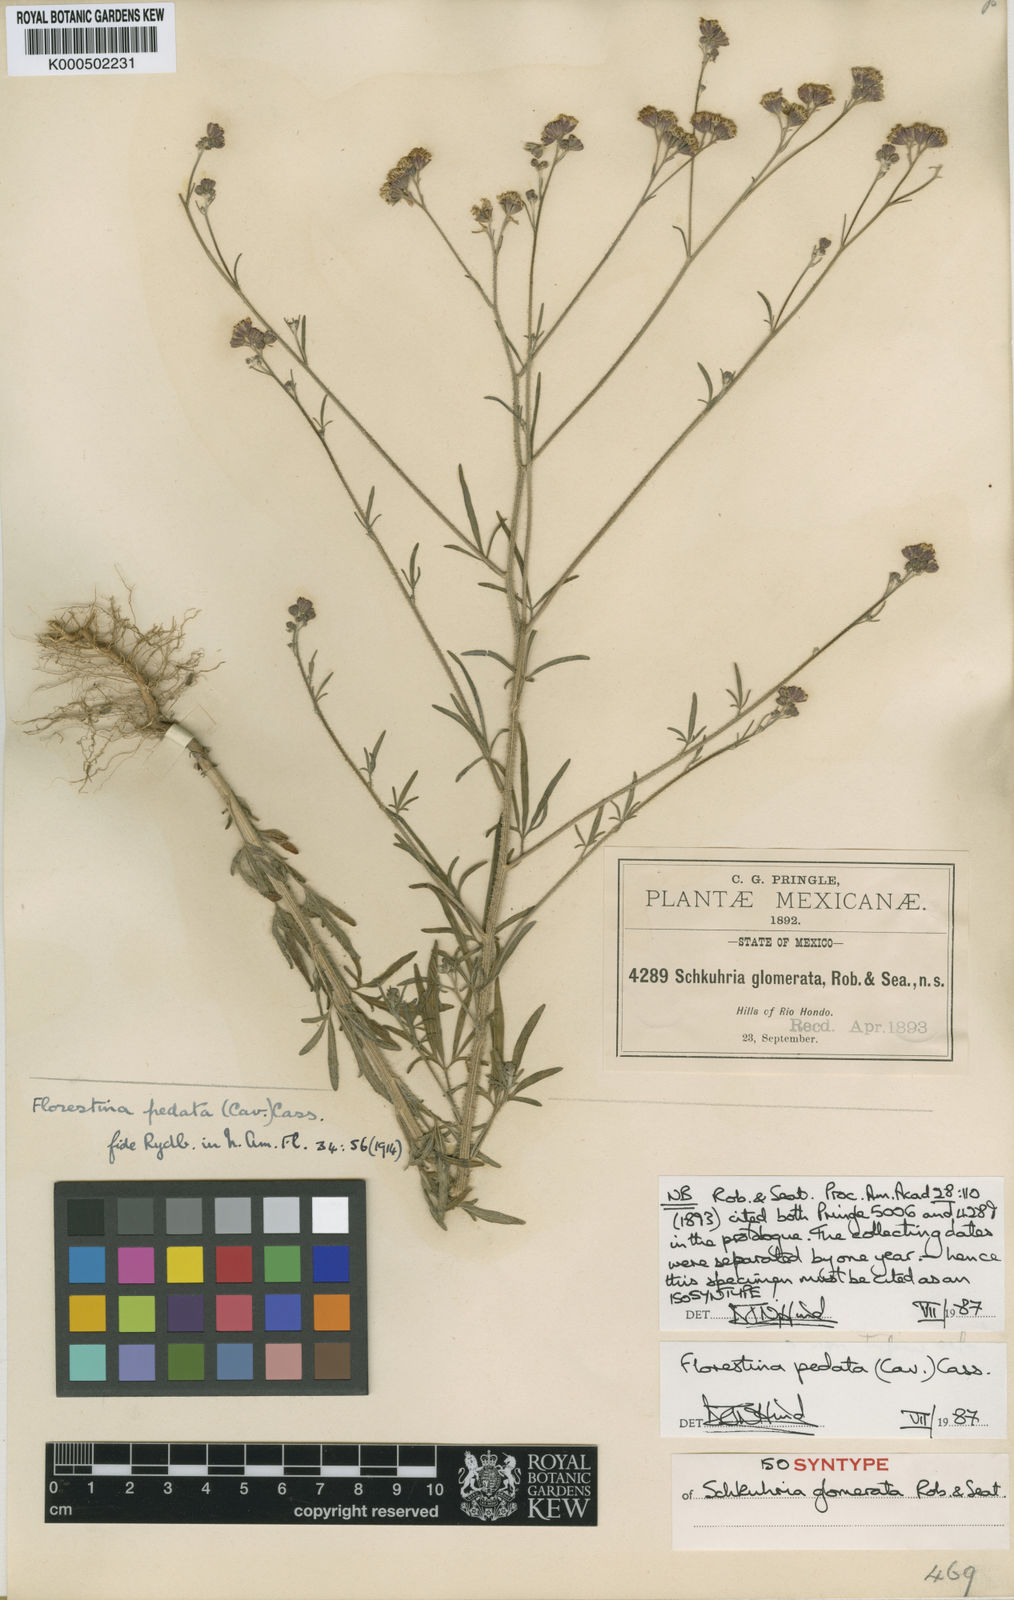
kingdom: Plantae
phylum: Tracheophyta
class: Magnoliopsida
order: Asterales
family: Asteraceae
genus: Florestina
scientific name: Florestina pedata
